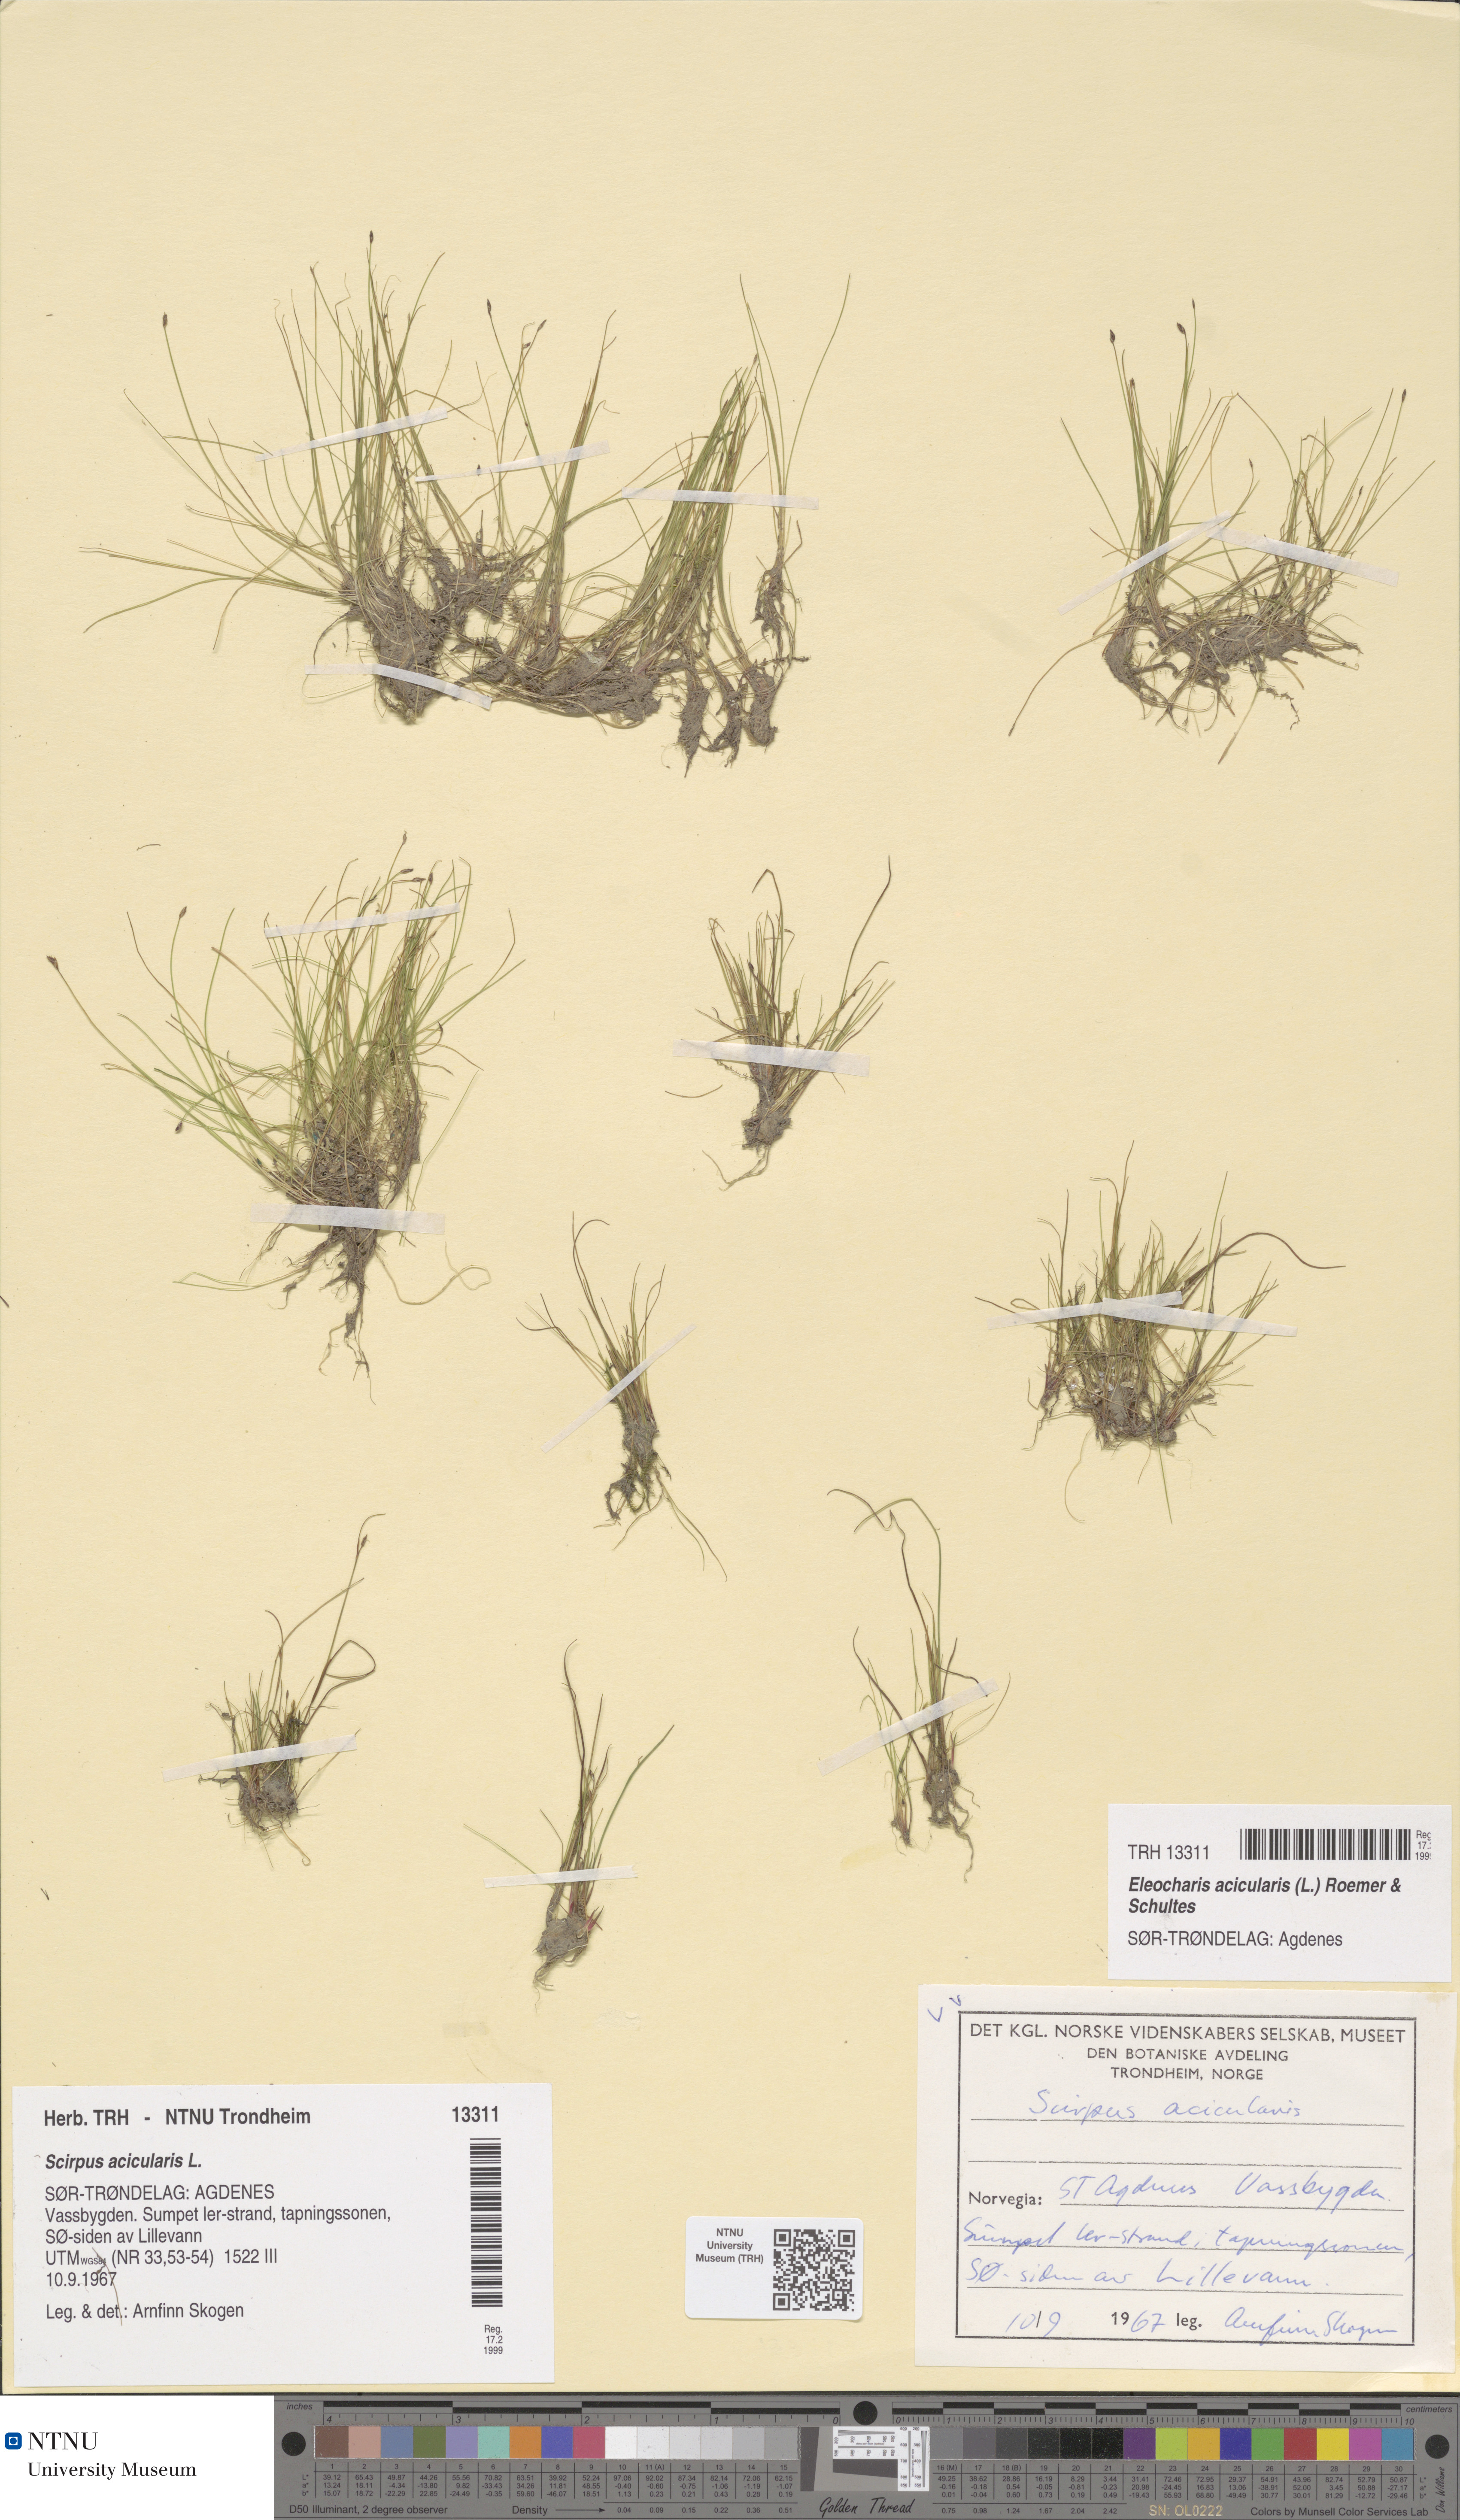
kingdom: Plantae
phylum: Tracheophyta
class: Liliopsida
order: Poales
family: Cyperaceae
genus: Eleocharis
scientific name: Eleocharis acicularis
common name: Needle spike-rush
